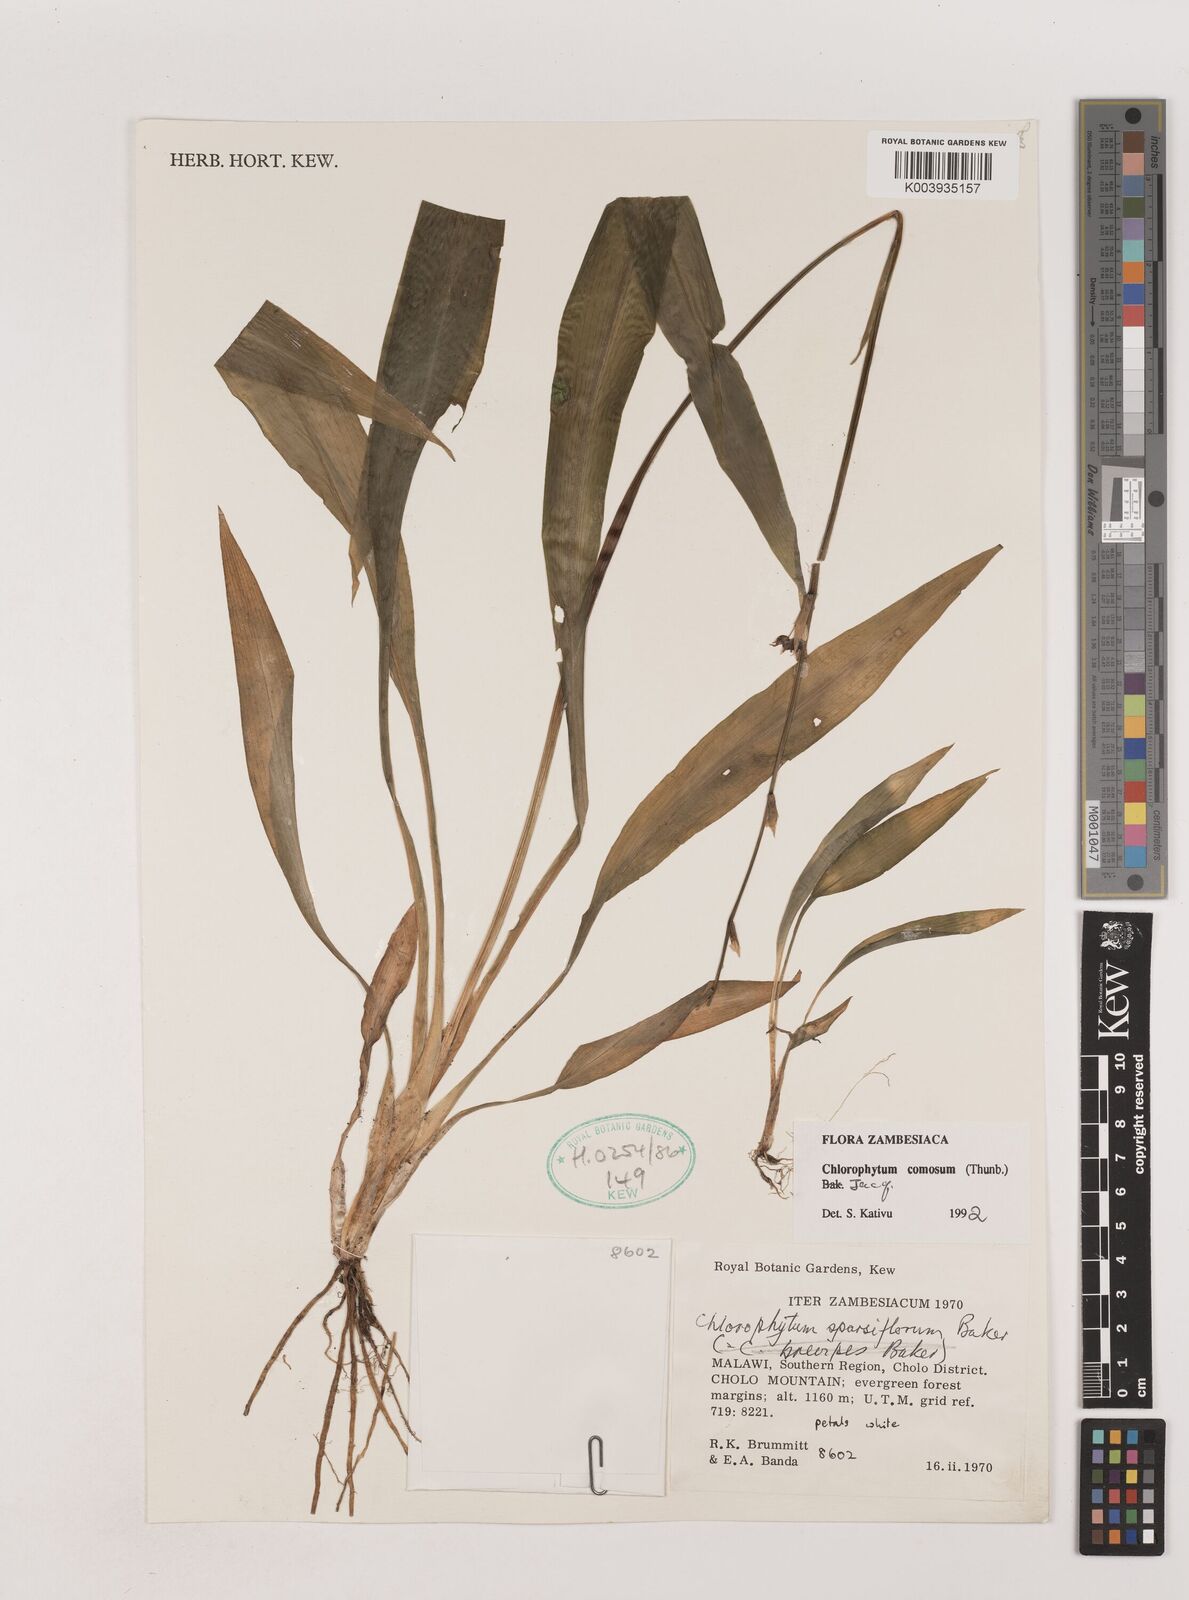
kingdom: Plantae
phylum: Tracheophyta
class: Liliopsida
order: Asparagales
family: Asparagaceae
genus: Chlorophytum
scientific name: Chlorophytum comosum
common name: Spider plant
